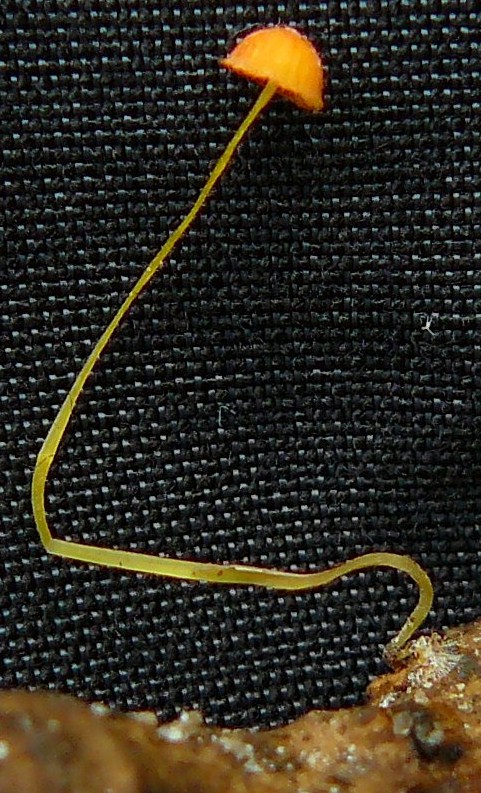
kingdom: Fungi
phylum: Basidiomycota
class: Agaricomycetes
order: Agaricales
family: Mycenaceae
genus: Mycena
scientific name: Mycena acicula
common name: orange huesvamp
